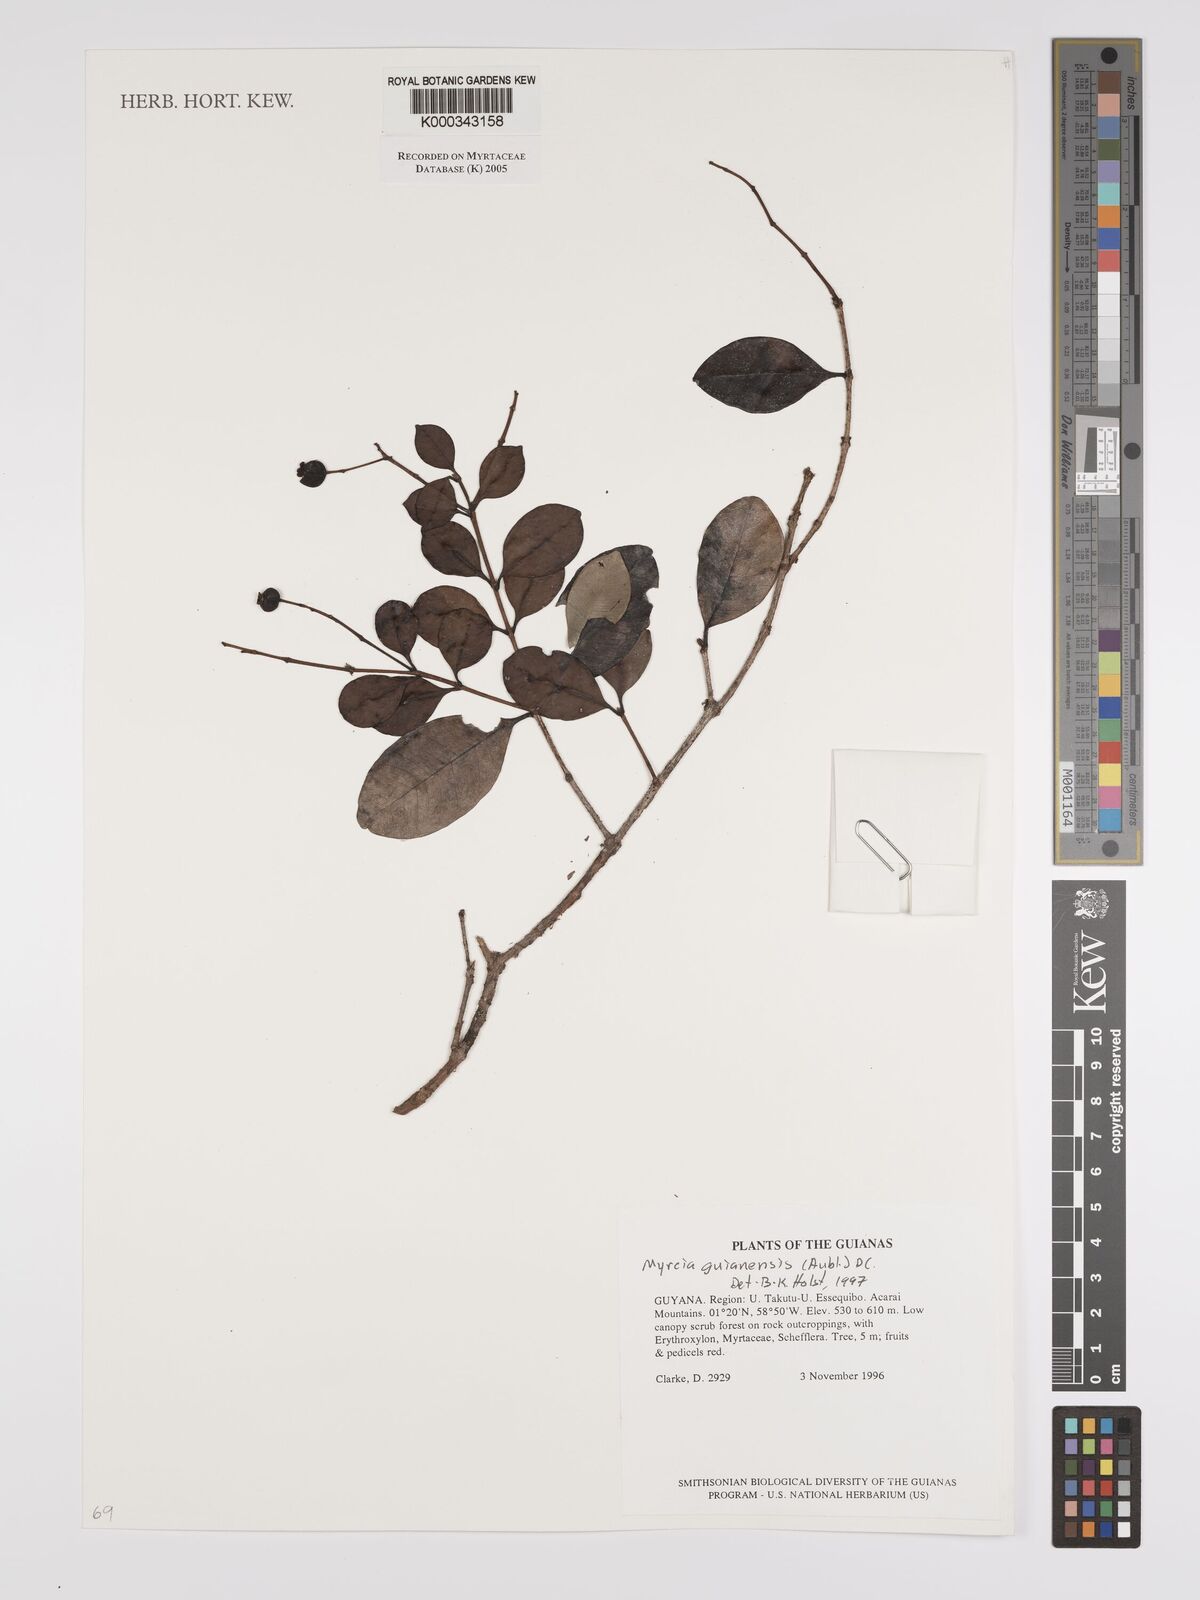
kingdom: Plantae
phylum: Tracheophyta
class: Magnoliopsida
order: Myrtales
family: Myrtaceae
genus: Myrcia
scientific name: Myrcia guianensis
